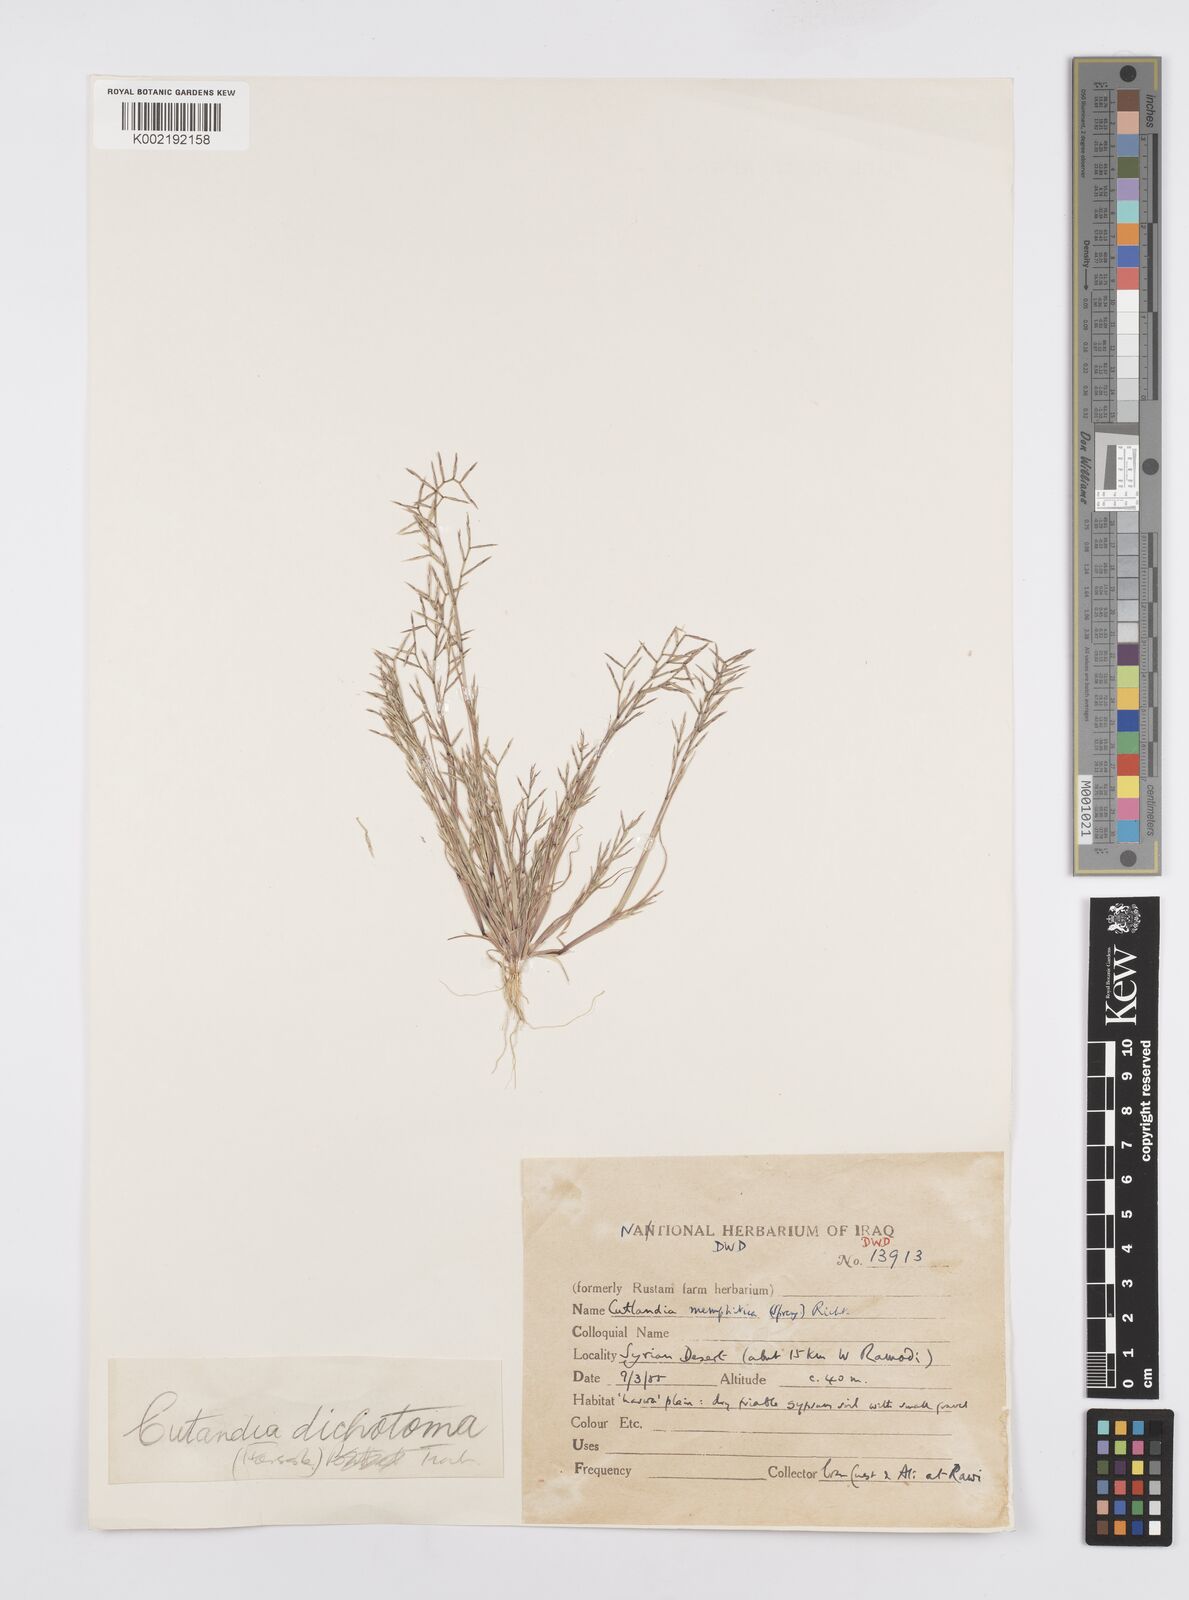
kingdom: Plantae
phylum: Tracheophyta
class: Liliopsida
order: Poales
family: Poaceae
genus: Cutandia
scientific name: Cutandia dichotoma
